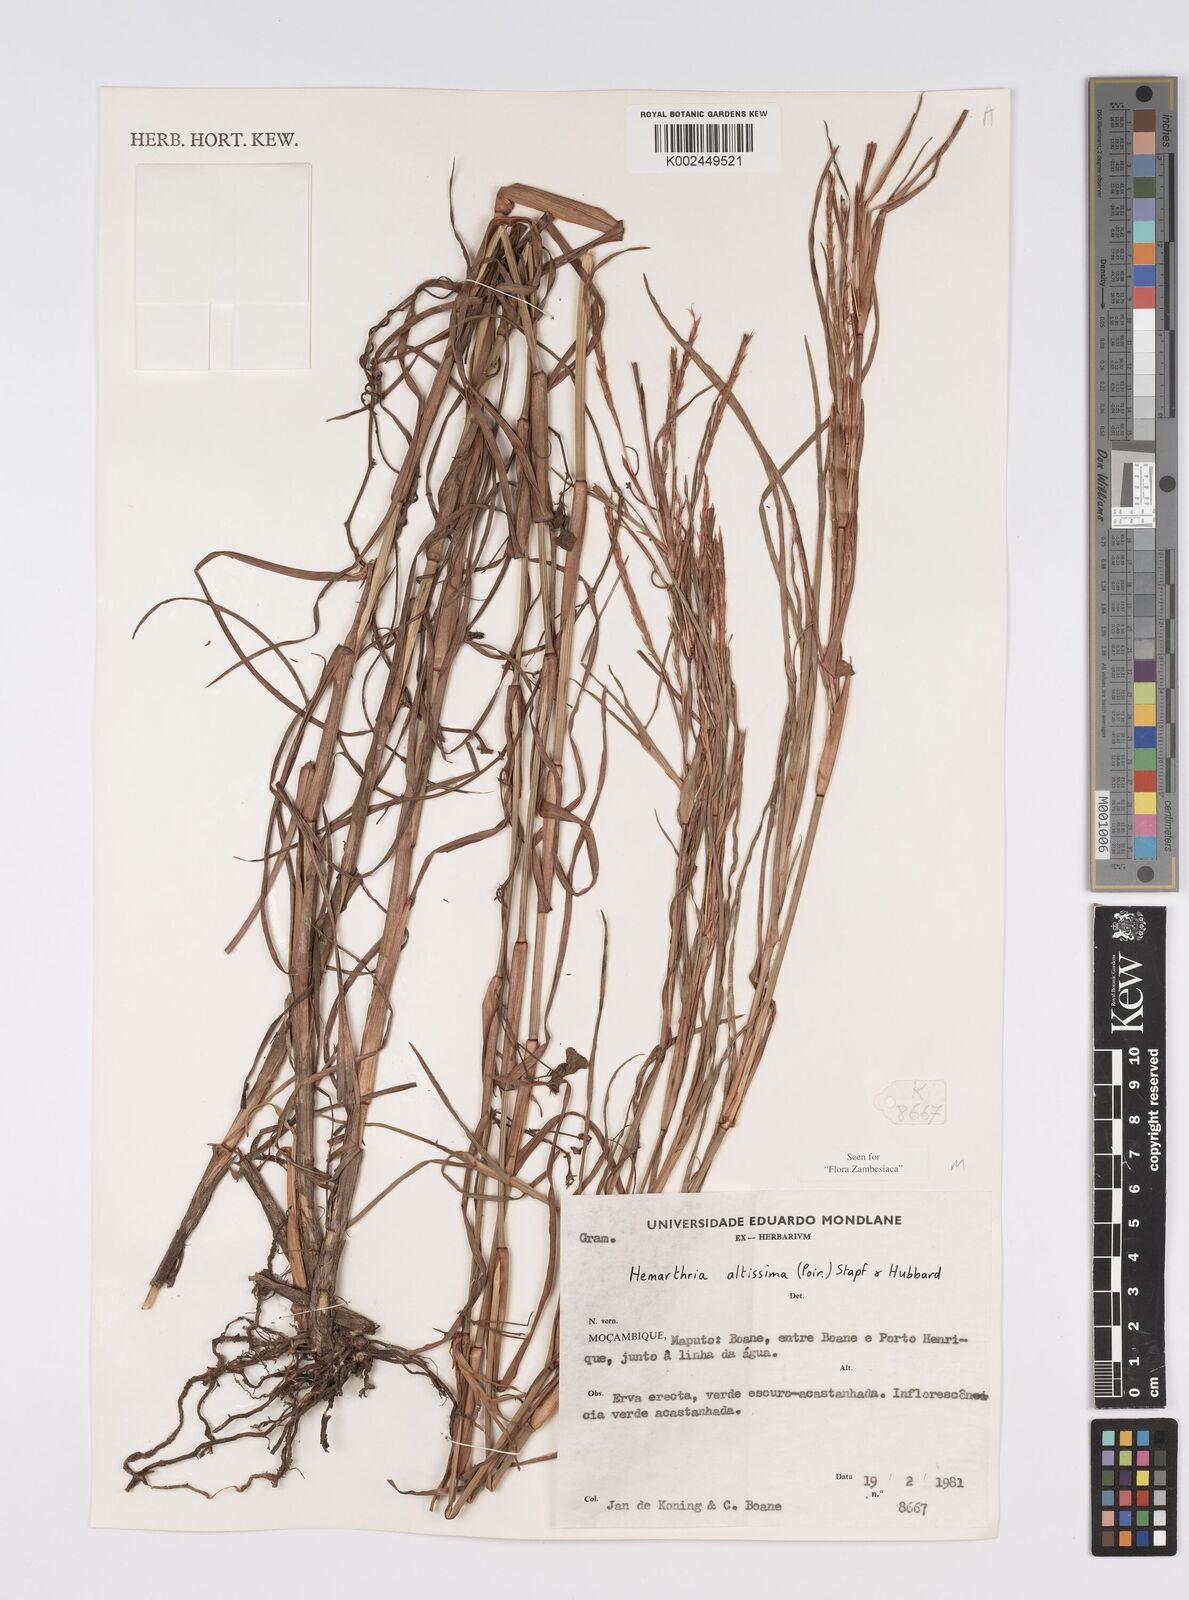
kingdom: Plantae
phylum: Tracheophyta
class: Liliopsida
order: Poales
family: Poaceae
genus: Hemarthria
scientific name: Hemarthria altissima
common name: African jointgrass
